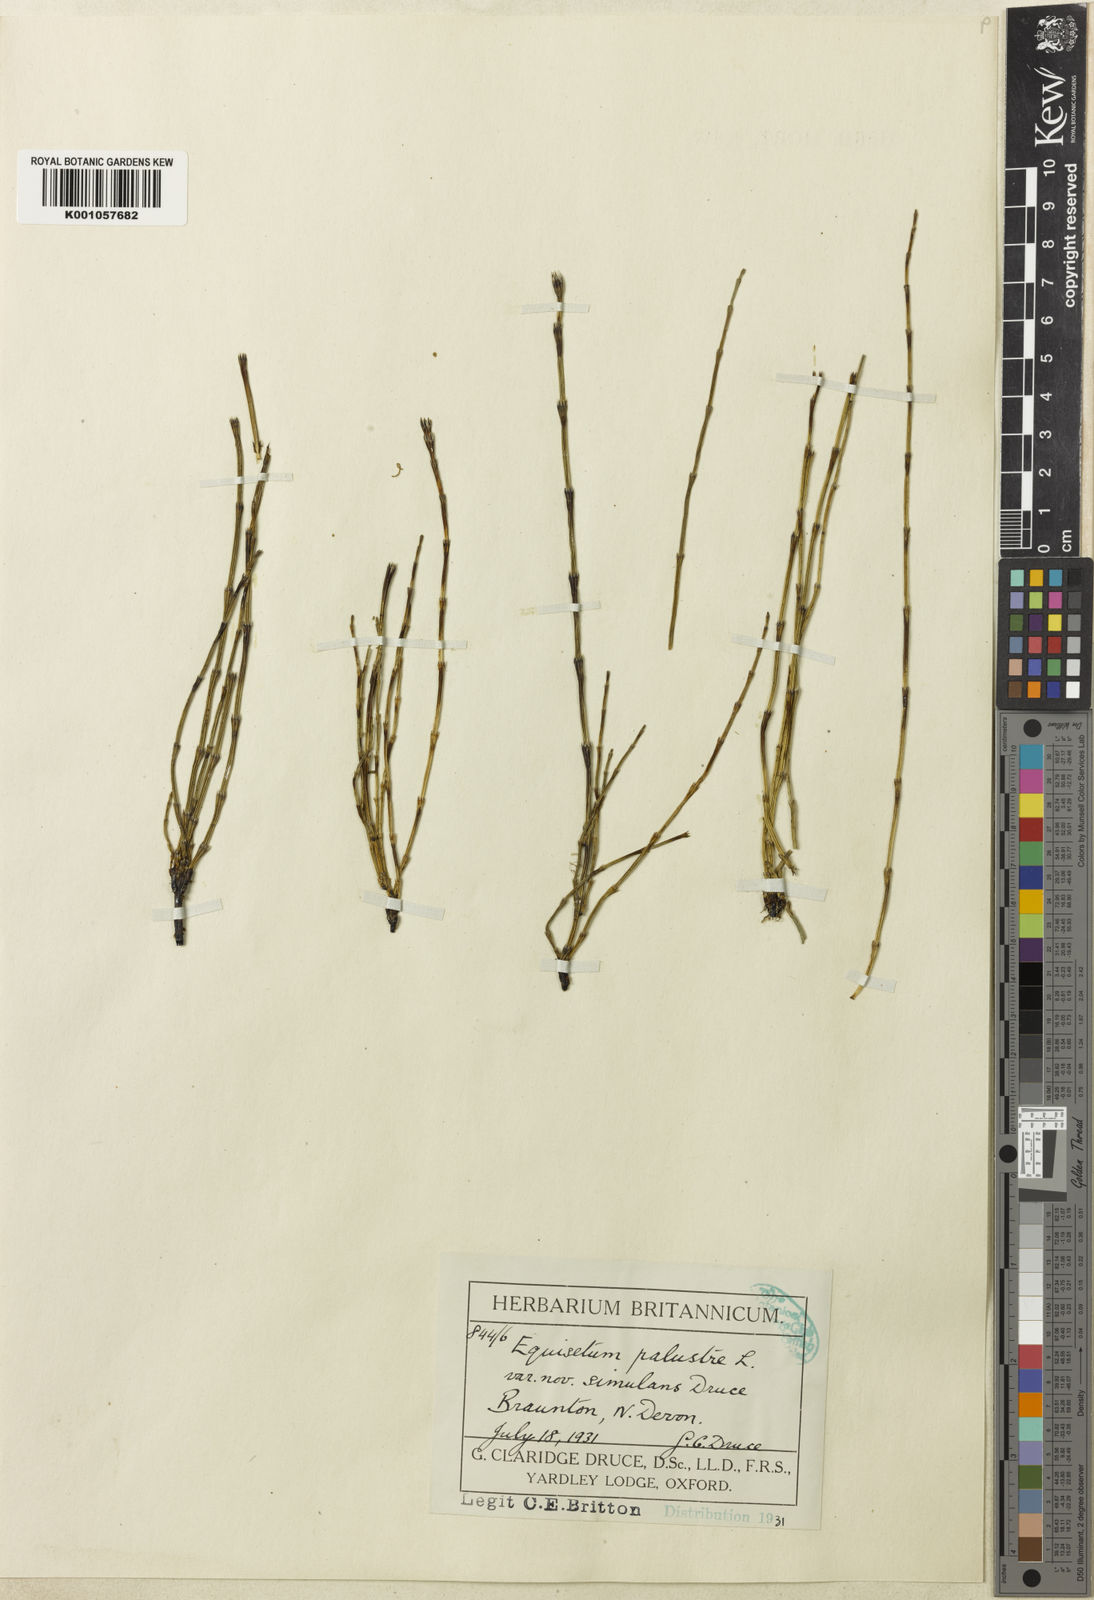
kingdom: Plantae
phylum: Tracheophyta
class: Polypodiopsida
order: Equisetales
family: Equisetaceae
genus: Equisetum
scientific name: Equisetum palustre
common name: Marsh horsetail
